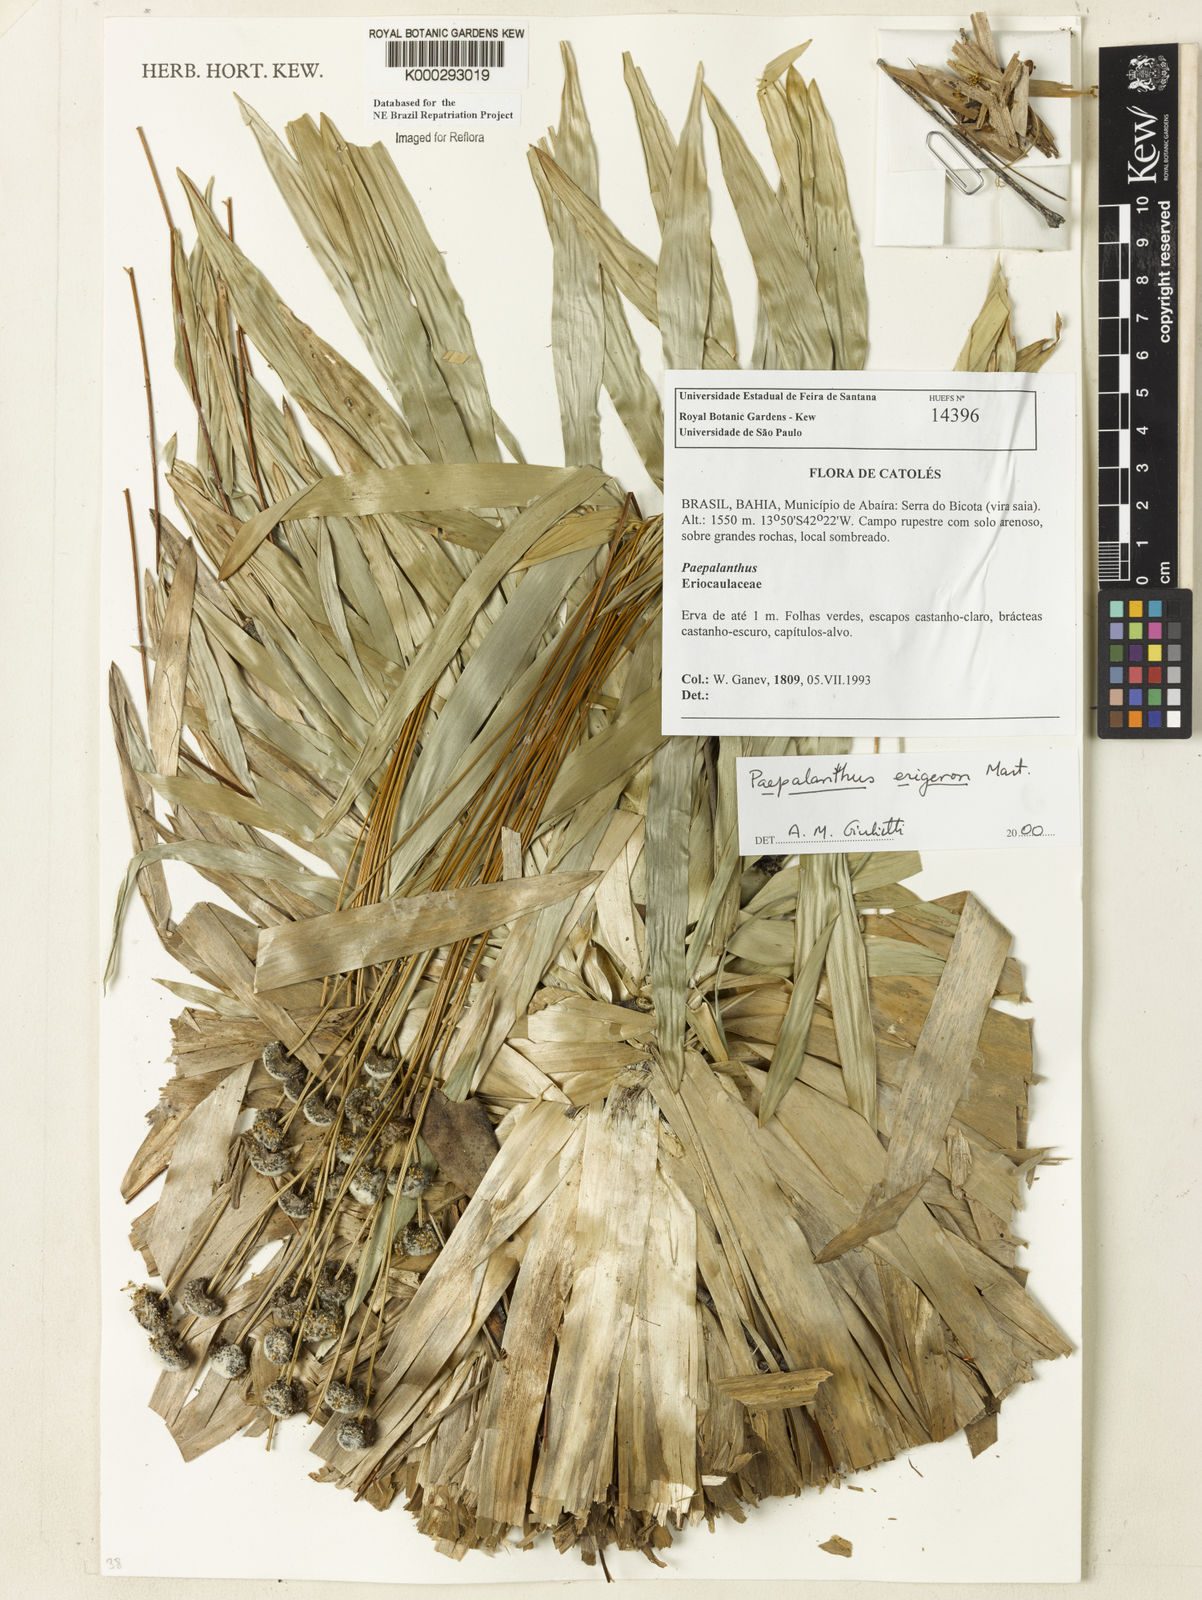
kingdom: Plantae
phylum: Tracheophyta
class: Liliopsida
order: Poales
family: Eriocaulaceae
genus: Paepalanthus
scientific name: Paepalanthus
